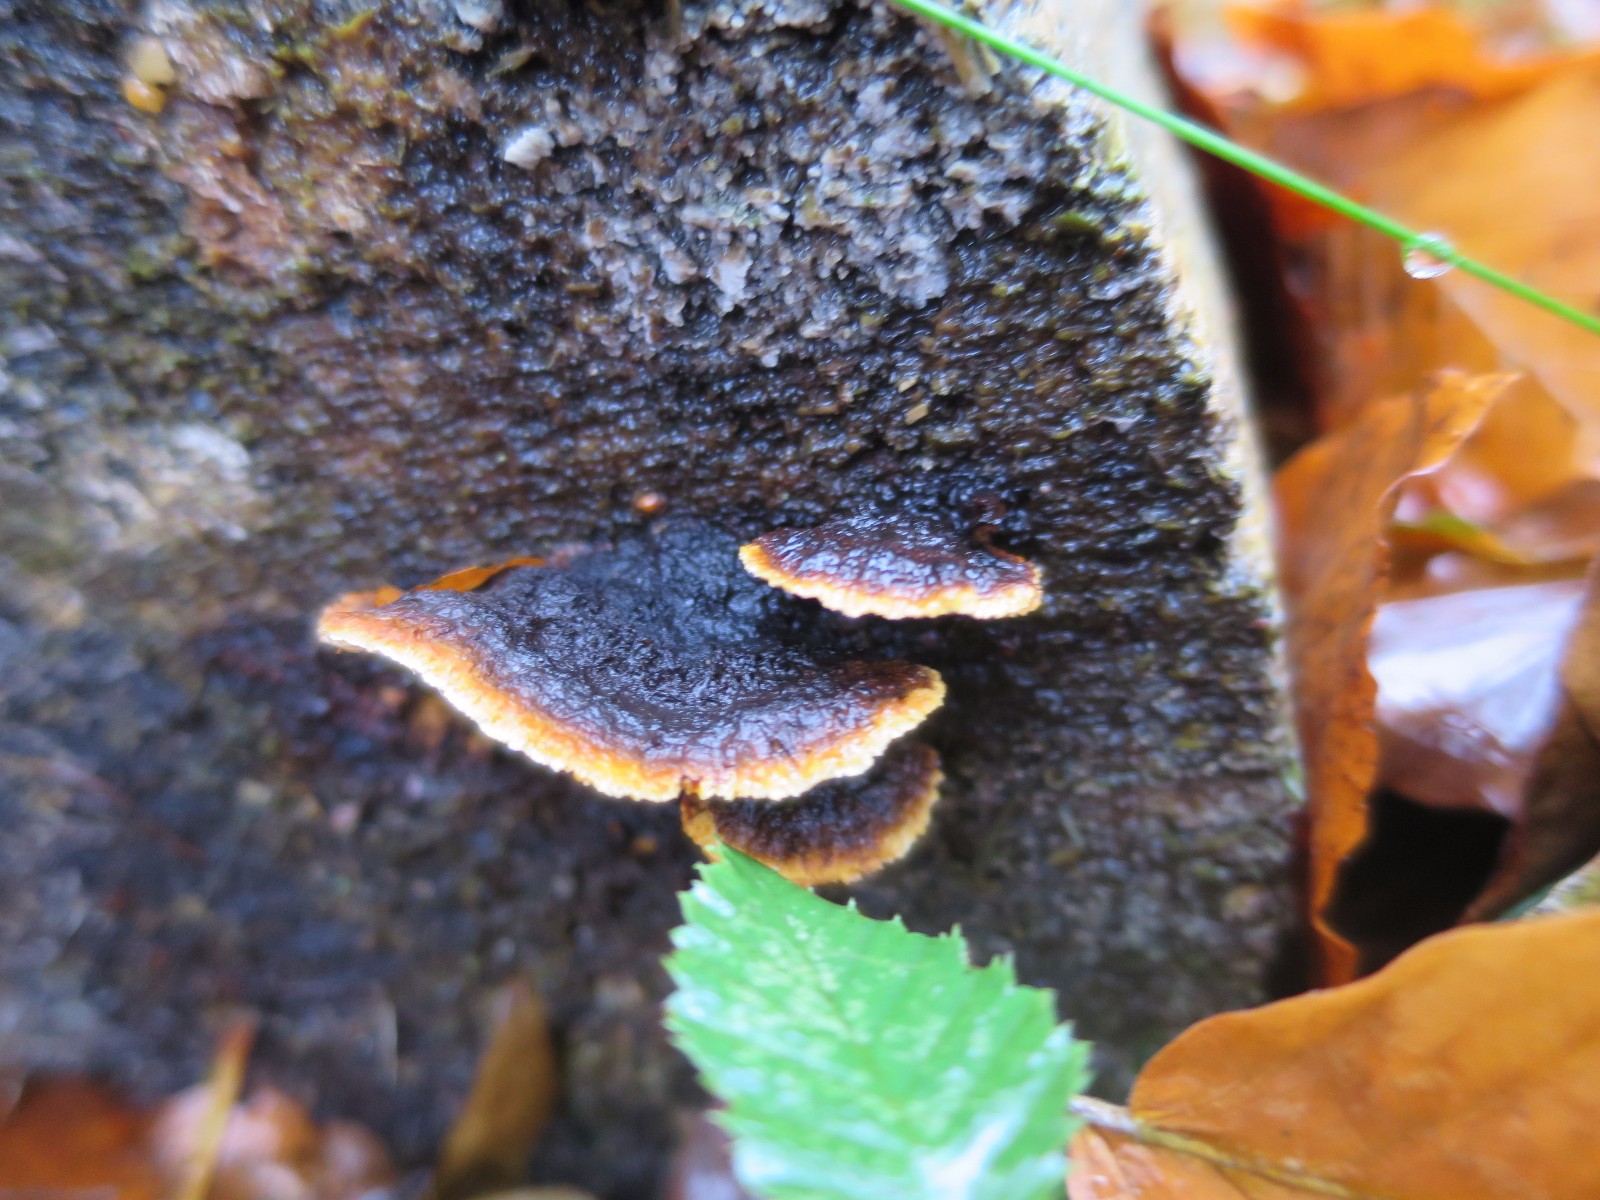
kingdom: Fungi
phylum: Basidiomycota
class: Agaricomycetes
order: Gloeophyllales
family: Gloeophyllaceae
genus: Gloeophyllum
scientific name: Gloeophyllum sepiarium
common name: fyrre-korkhat
